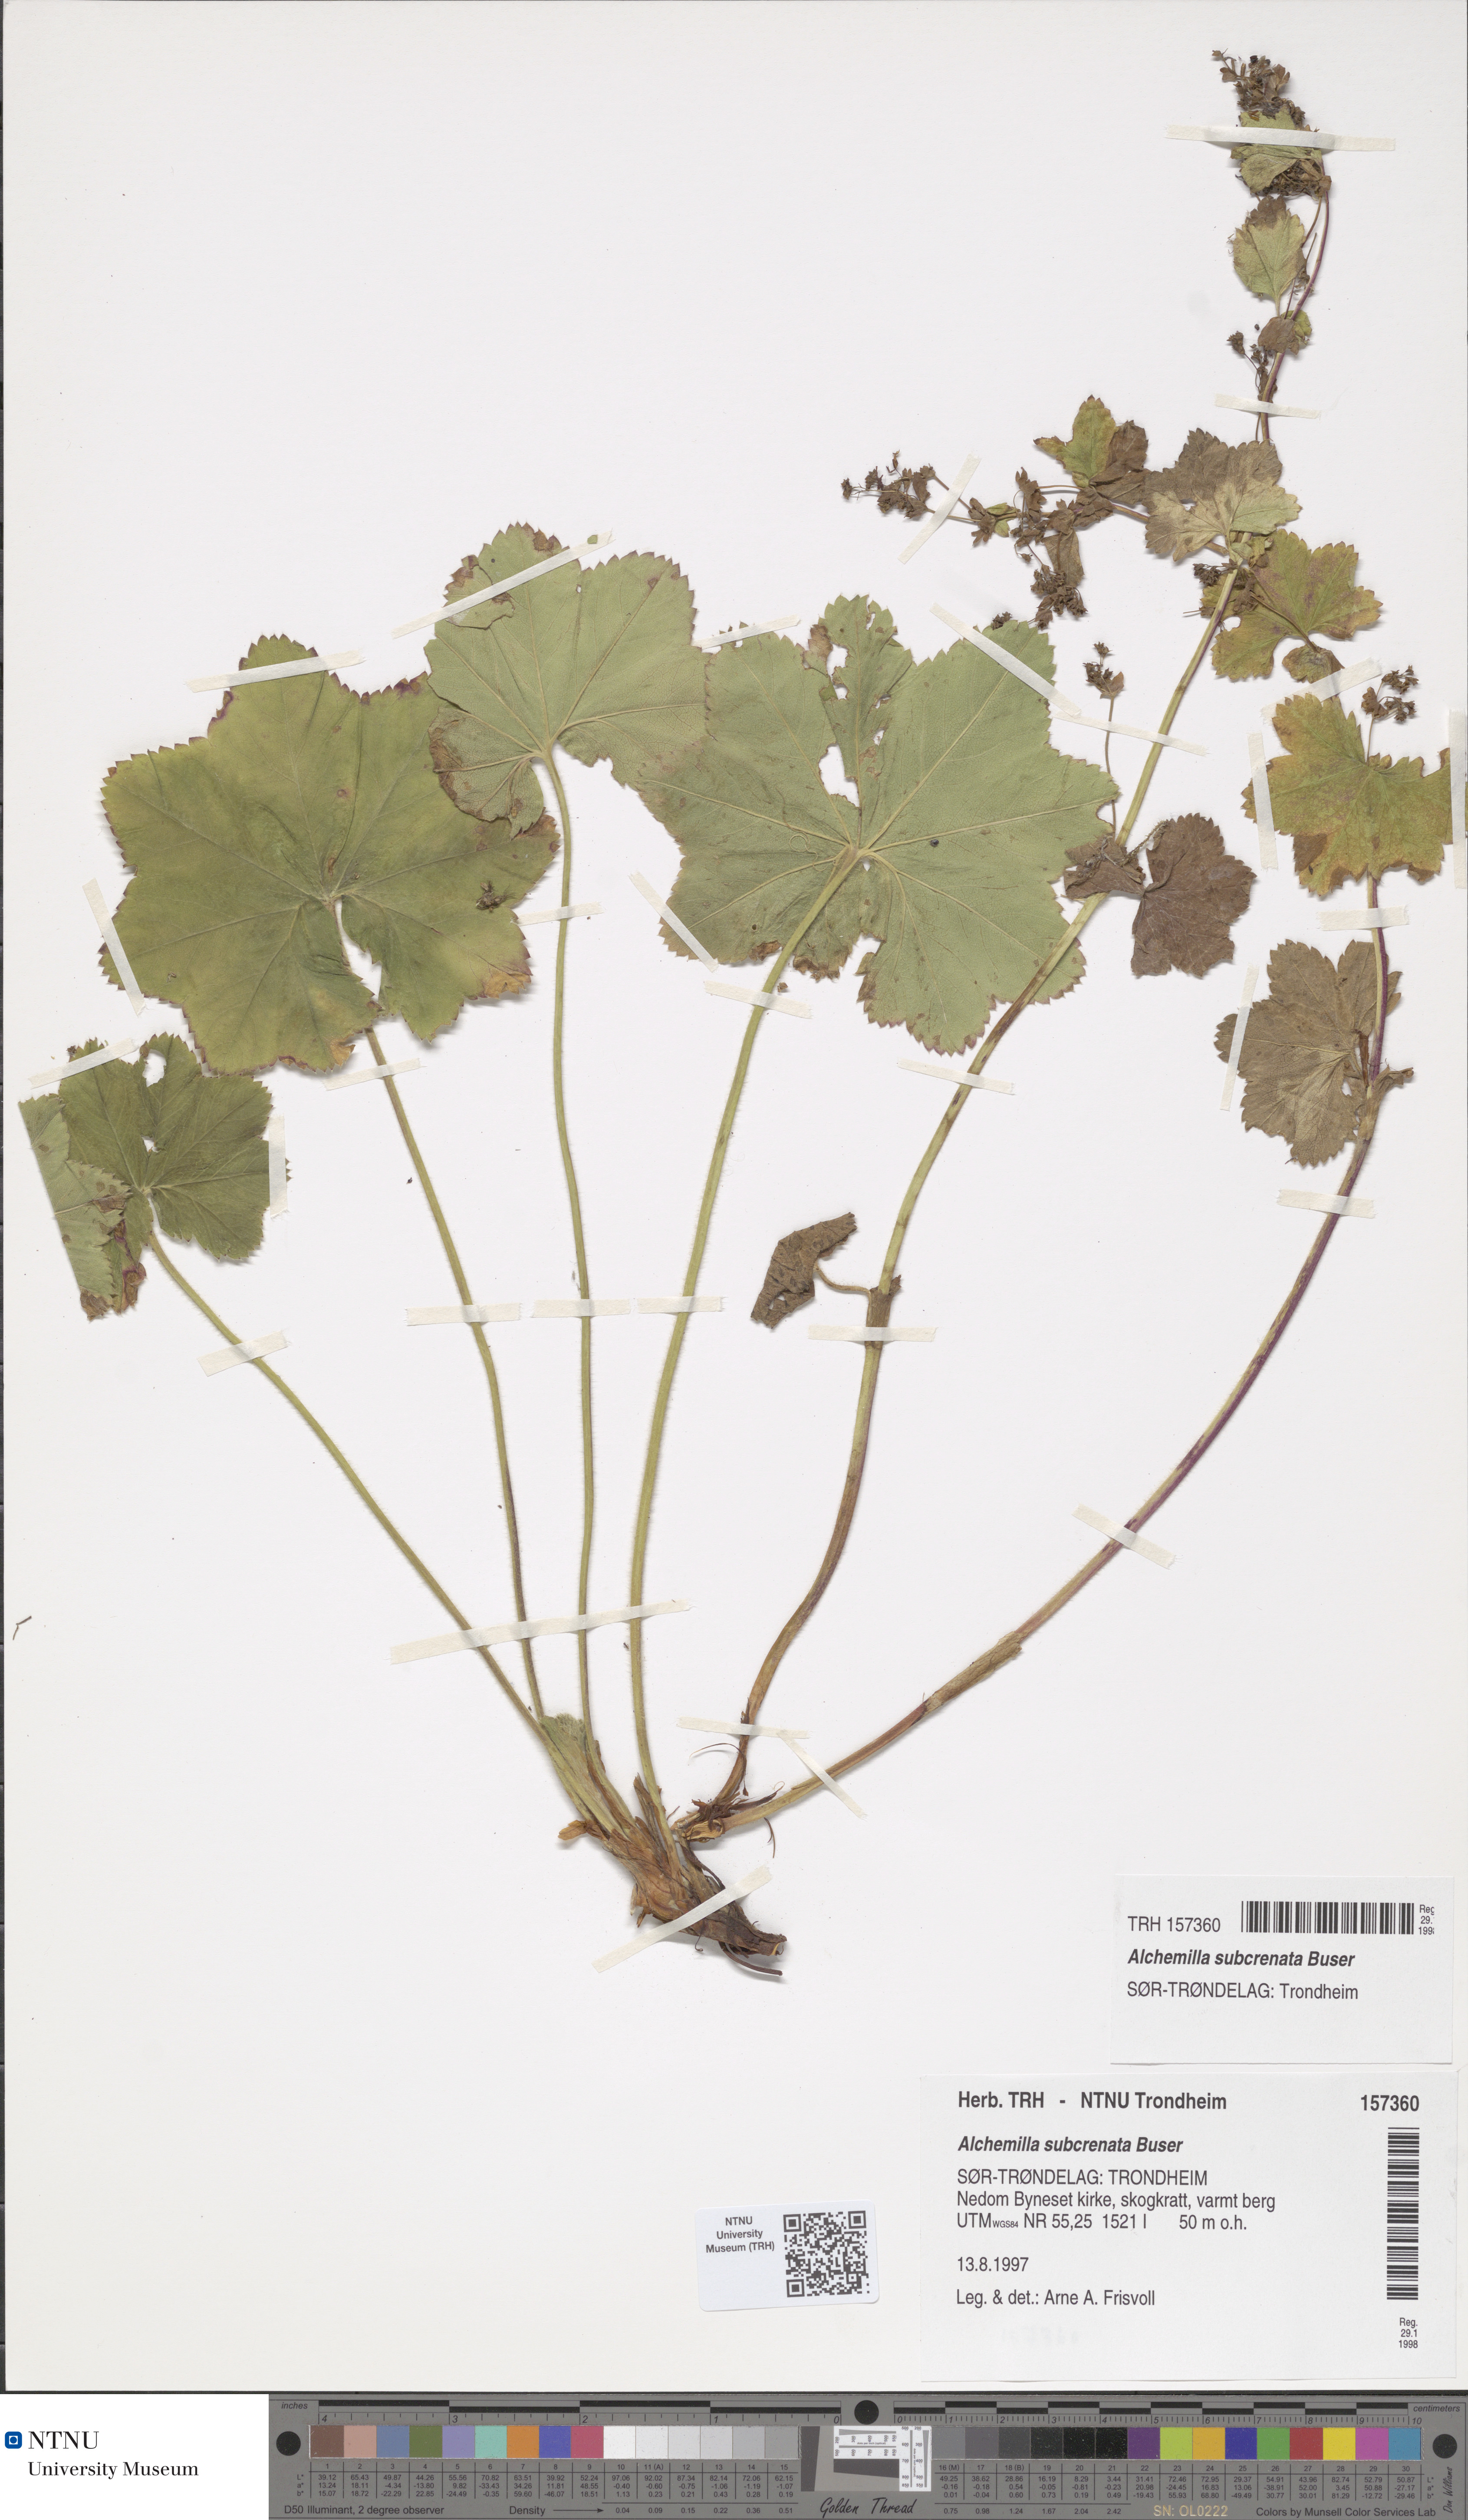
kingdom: Plantae
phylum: Tracheophyta
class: Magnoliopsida
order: Rosales
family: Rosaceae
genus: Alchemilla
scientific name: Alchemilla subcrenata
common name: Broadtooth lady's mantle
